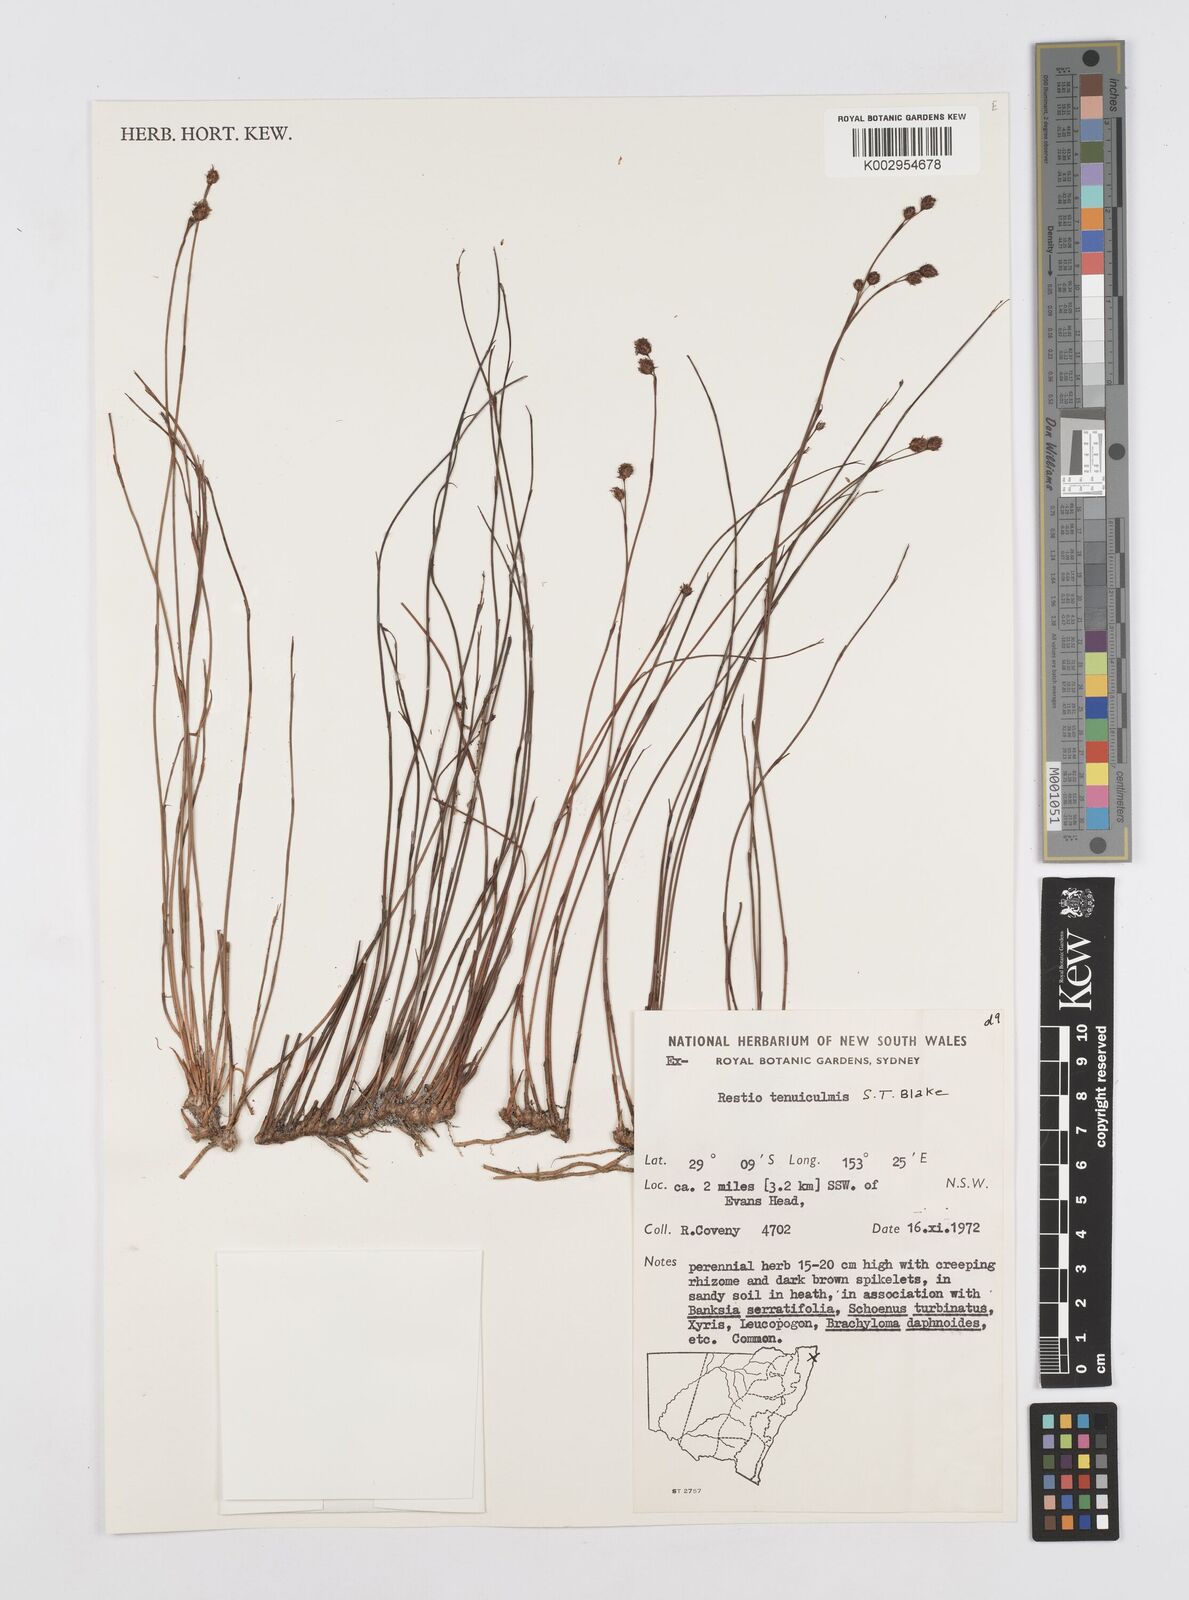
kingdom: Plantae
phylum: Tracheophyta
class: Liliopsida
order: Poales
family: Restionaceae
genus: Baloskion
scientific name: Baloskion tenuiculme
